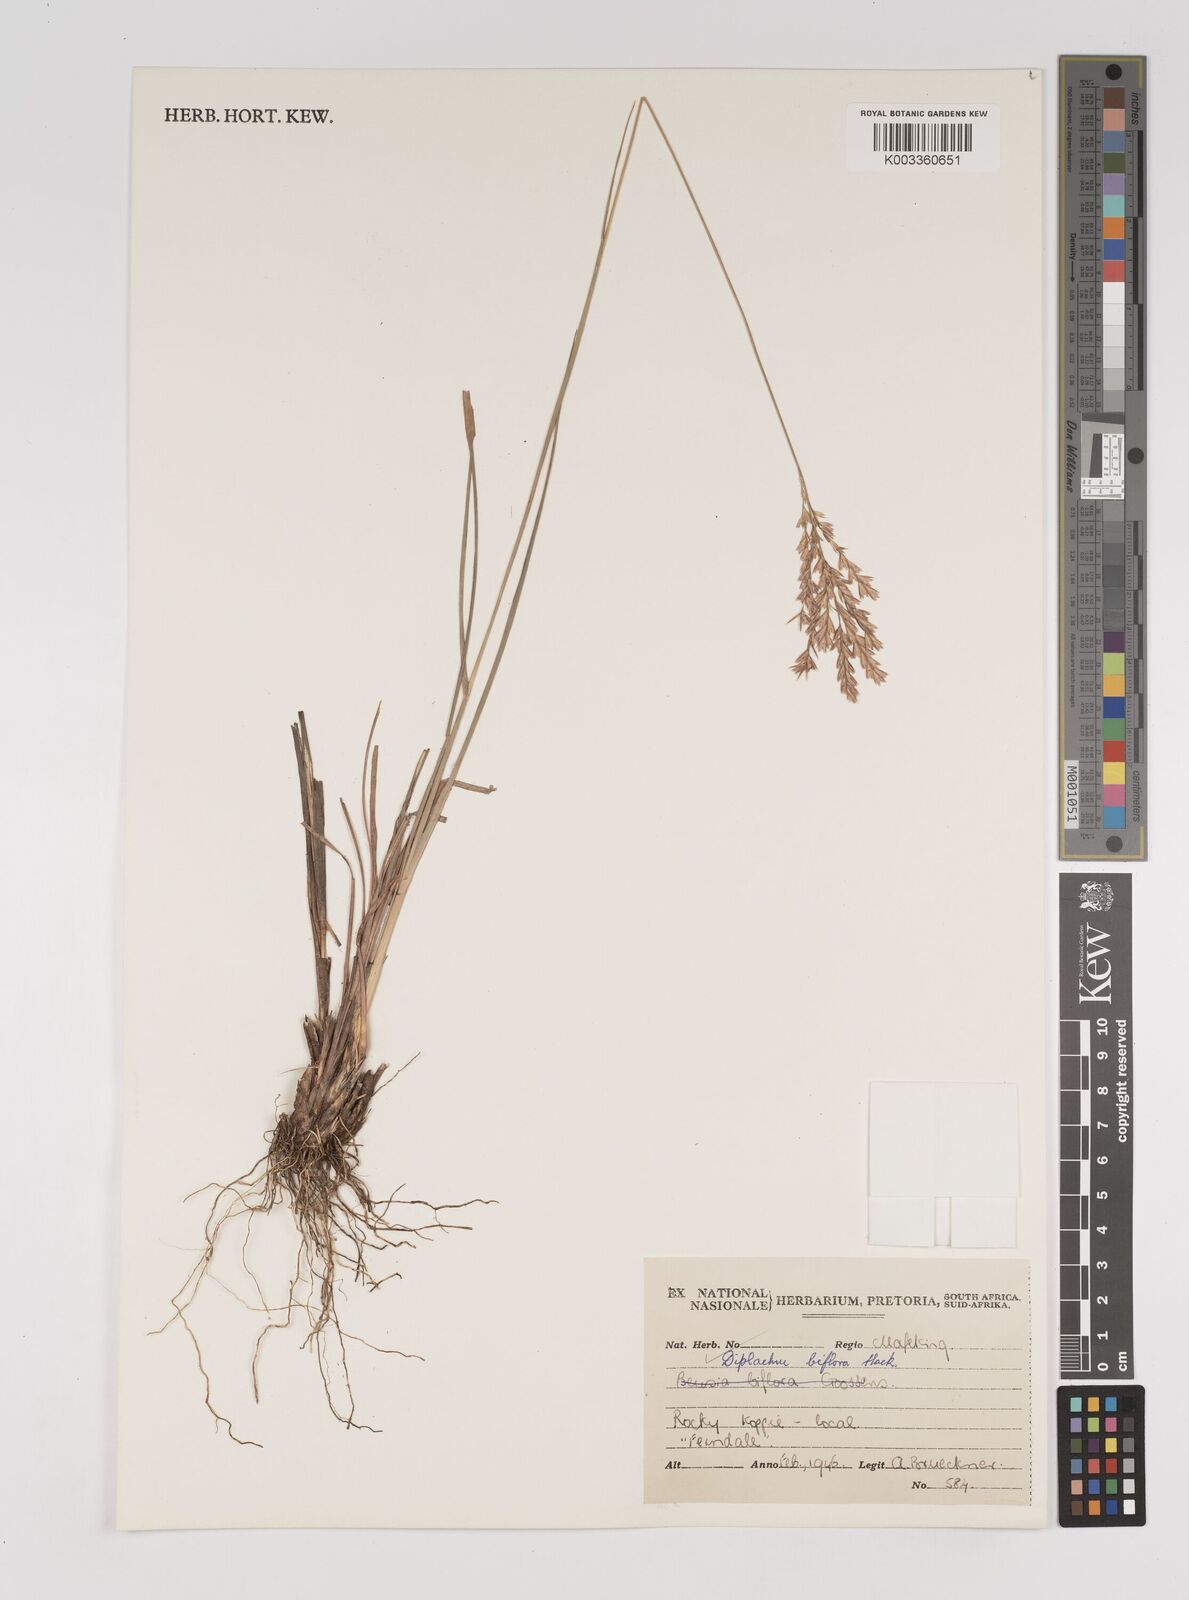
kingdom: Plantae
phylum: Tracheophyta
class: Liliopsida
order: Poales
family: Poaceae
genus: Bewsia
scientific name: Bewsia biflora
